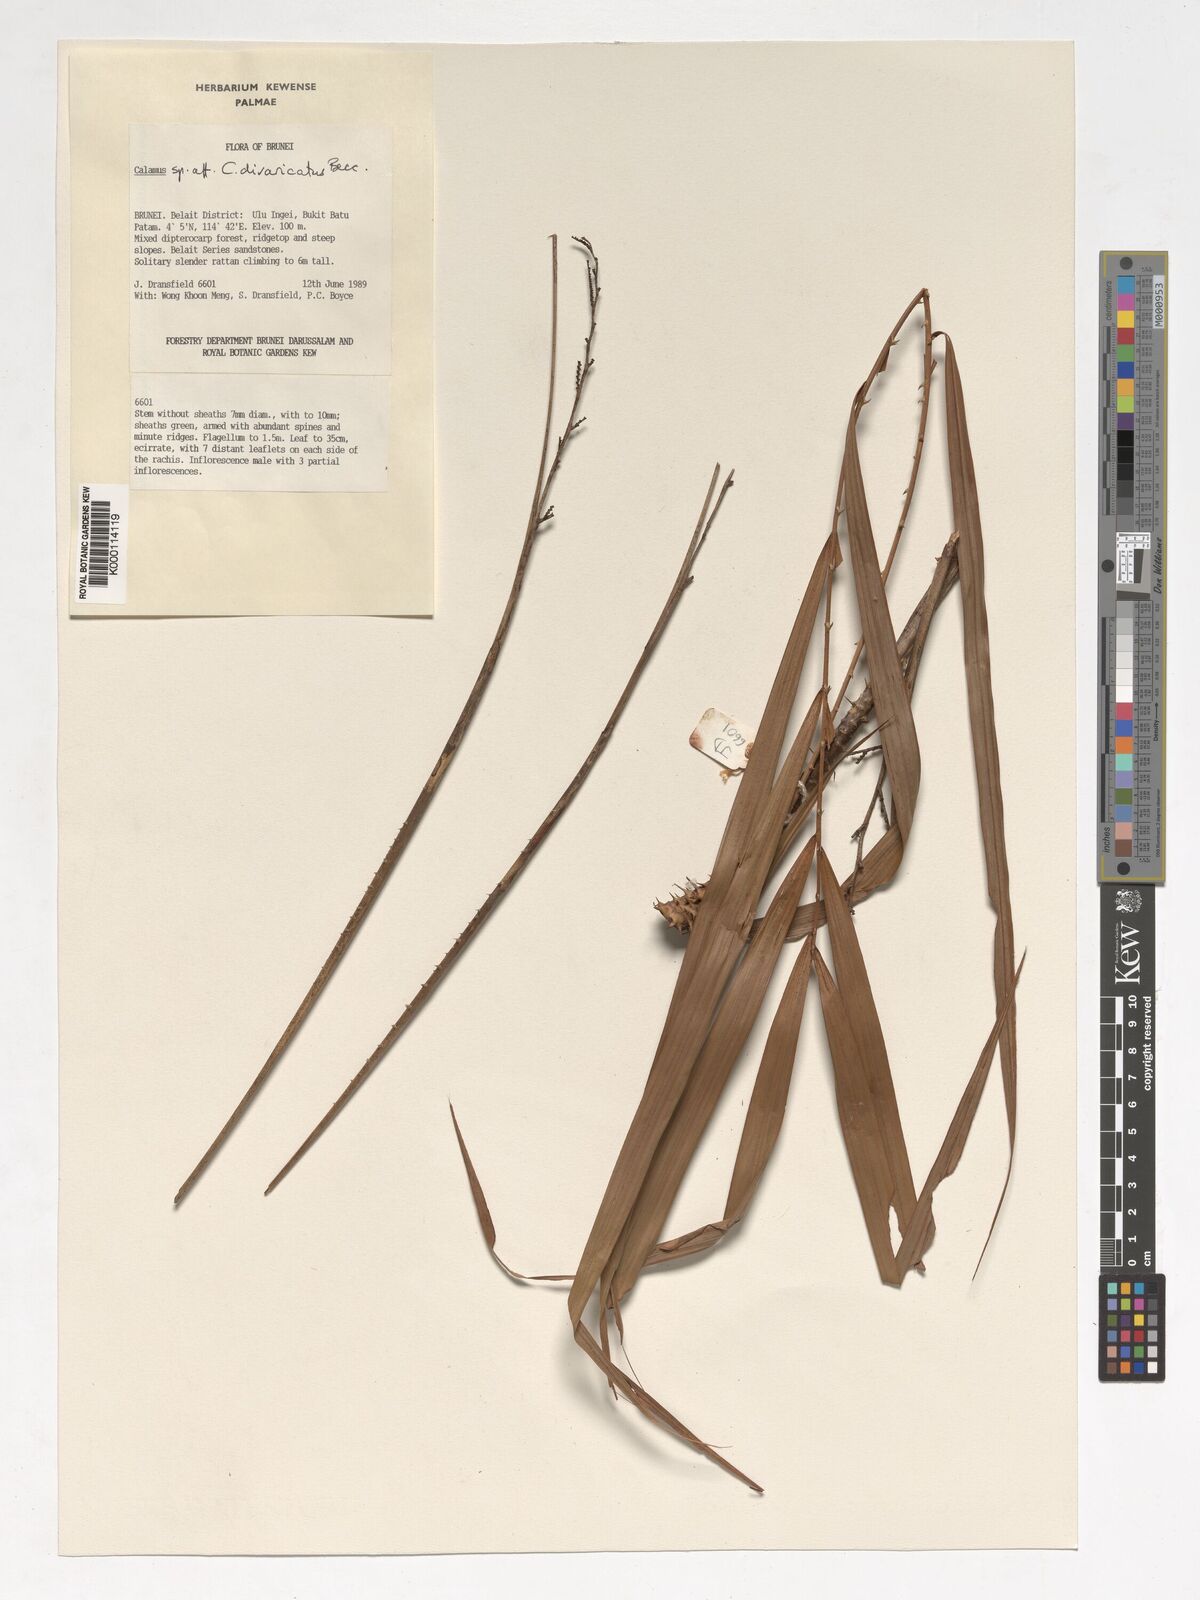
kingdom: Plantae
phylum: Tracheophyta
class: Liliopsida
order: Arecales
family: Arecaceae
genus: Calamus
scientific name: Calamus divaricatus
